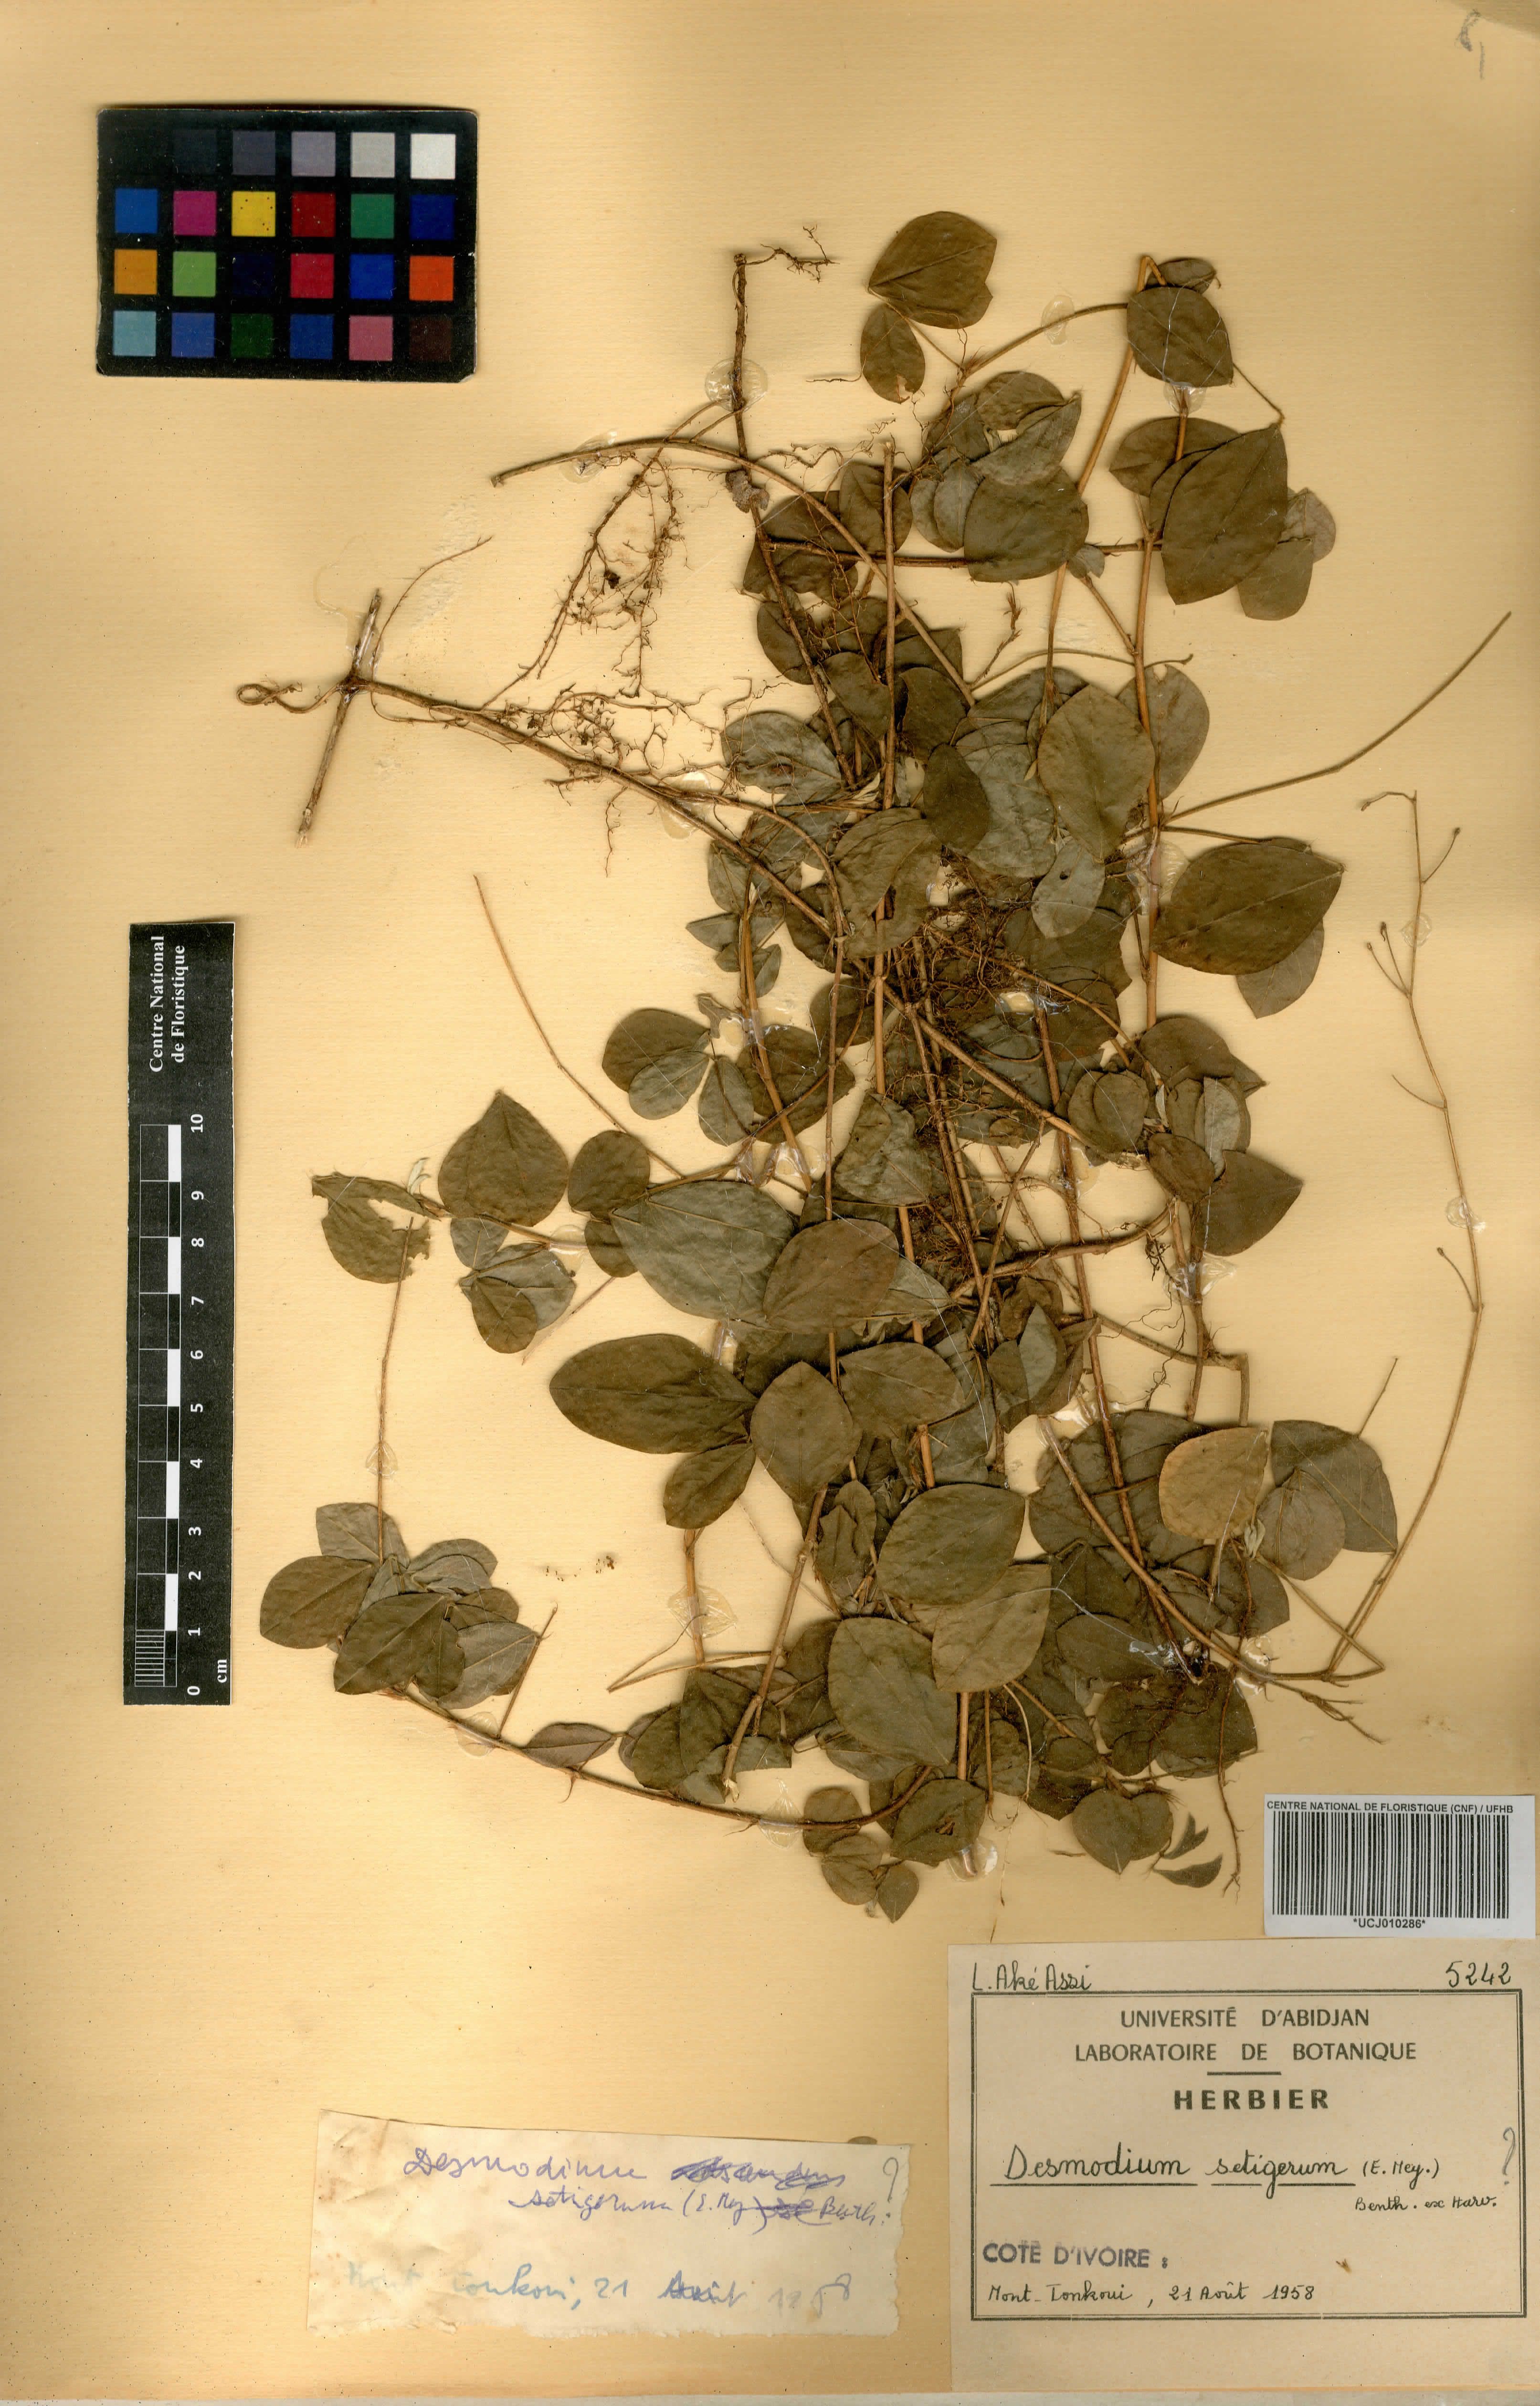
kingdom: Plantae
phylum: Tracheophyta
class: Magnoliopsida
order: Fabales
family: Fabaceae
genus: Grona
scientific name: Grona setigera
